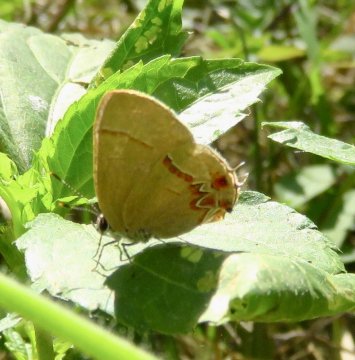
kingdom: Animalia
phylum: Arthropoda
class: Insecta
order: Lepidoptera
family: Lycaenidae
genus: Calycopis
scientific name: Calycopis vidulus
